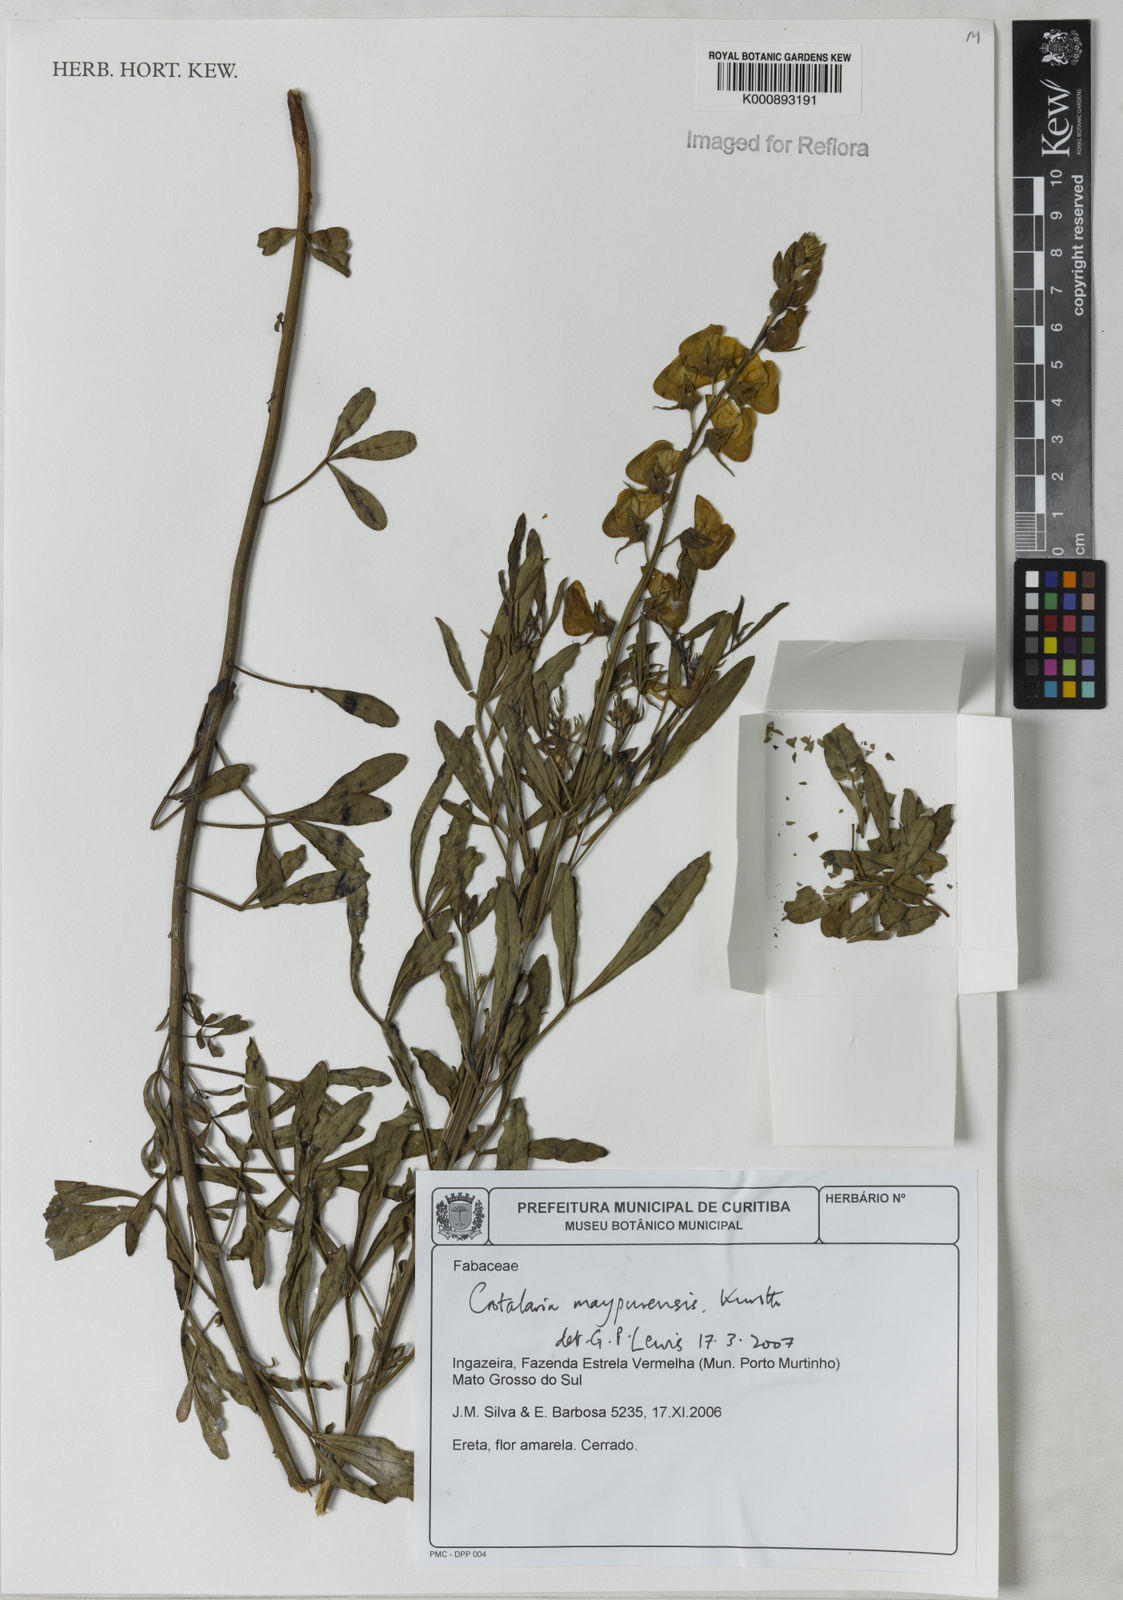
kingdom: Plantae
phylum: Tracheophyta
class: Magnoliopsida
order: Fabales
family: Fabaceae
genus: Crotalaria
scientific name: Crotalaria maypurensis
